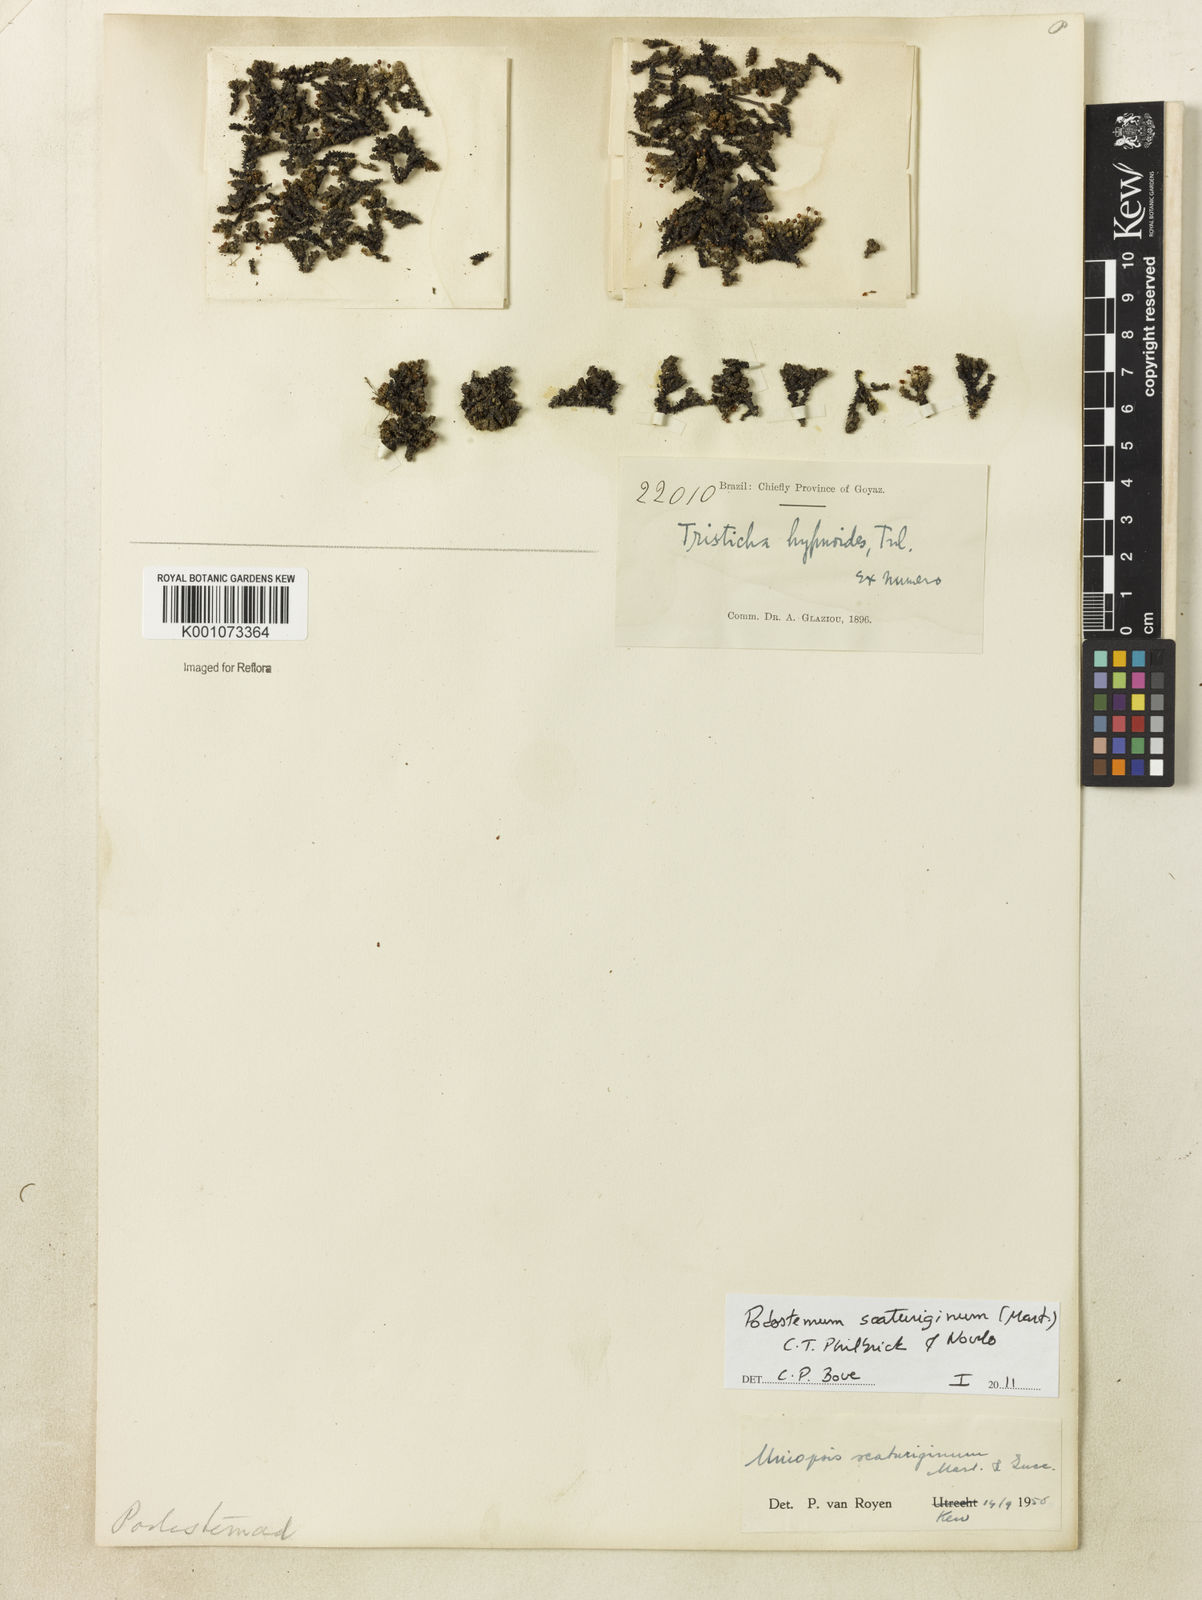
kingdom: Plantae
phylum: Tracheophyta
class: Magnoliopsida
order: Malpighiales
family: Podostemaceae
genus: Podostemum
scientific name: Podostemum scaturiginum
